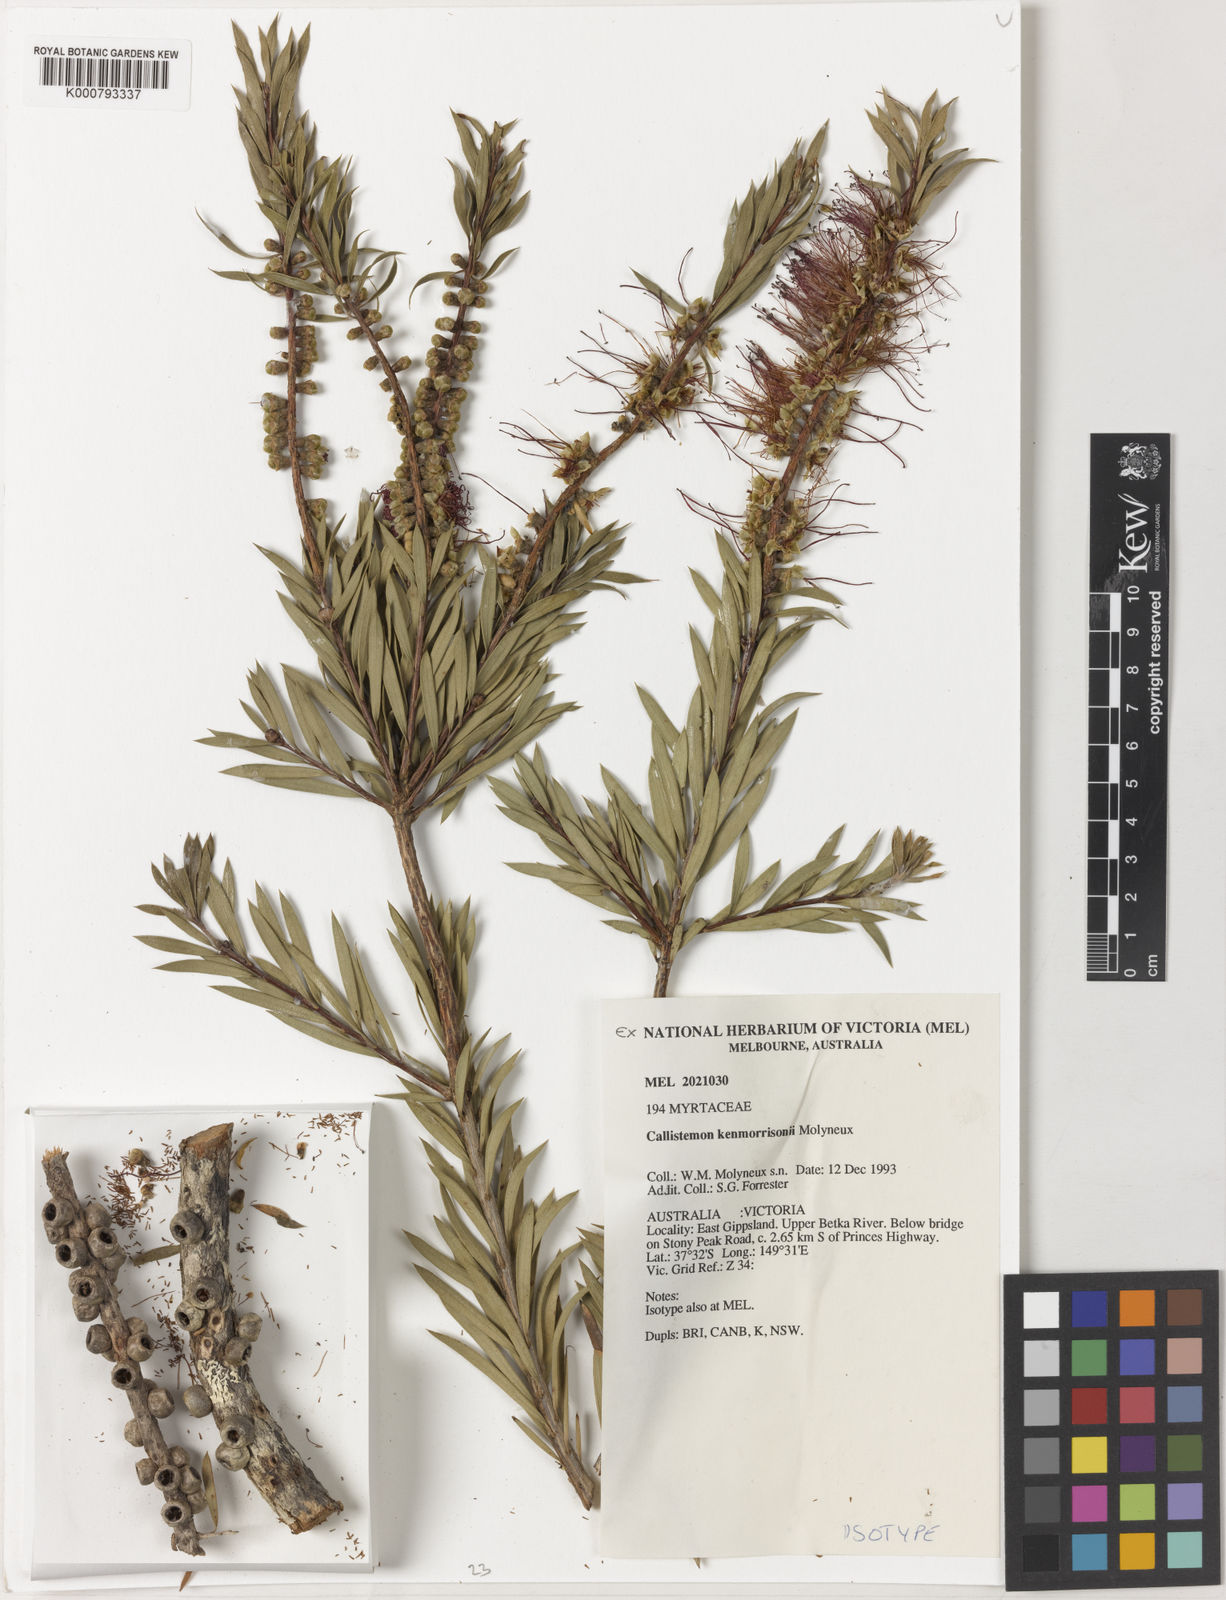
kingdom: Plantae
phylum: Tracheophyta
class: Magnoliopsida
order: Myrtales
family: Myrtaceae
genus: Callistemon
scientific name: Callistemon kenmorrisonii
